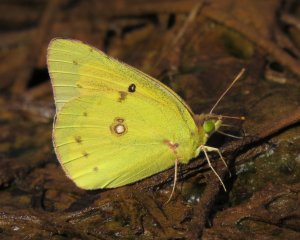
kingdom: Animalia
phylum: Arthropoda
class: Insecta
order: Lepidoptera
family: Pieridae
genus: Colias
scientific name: Colias eurytheme
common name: Orange Sulphur
